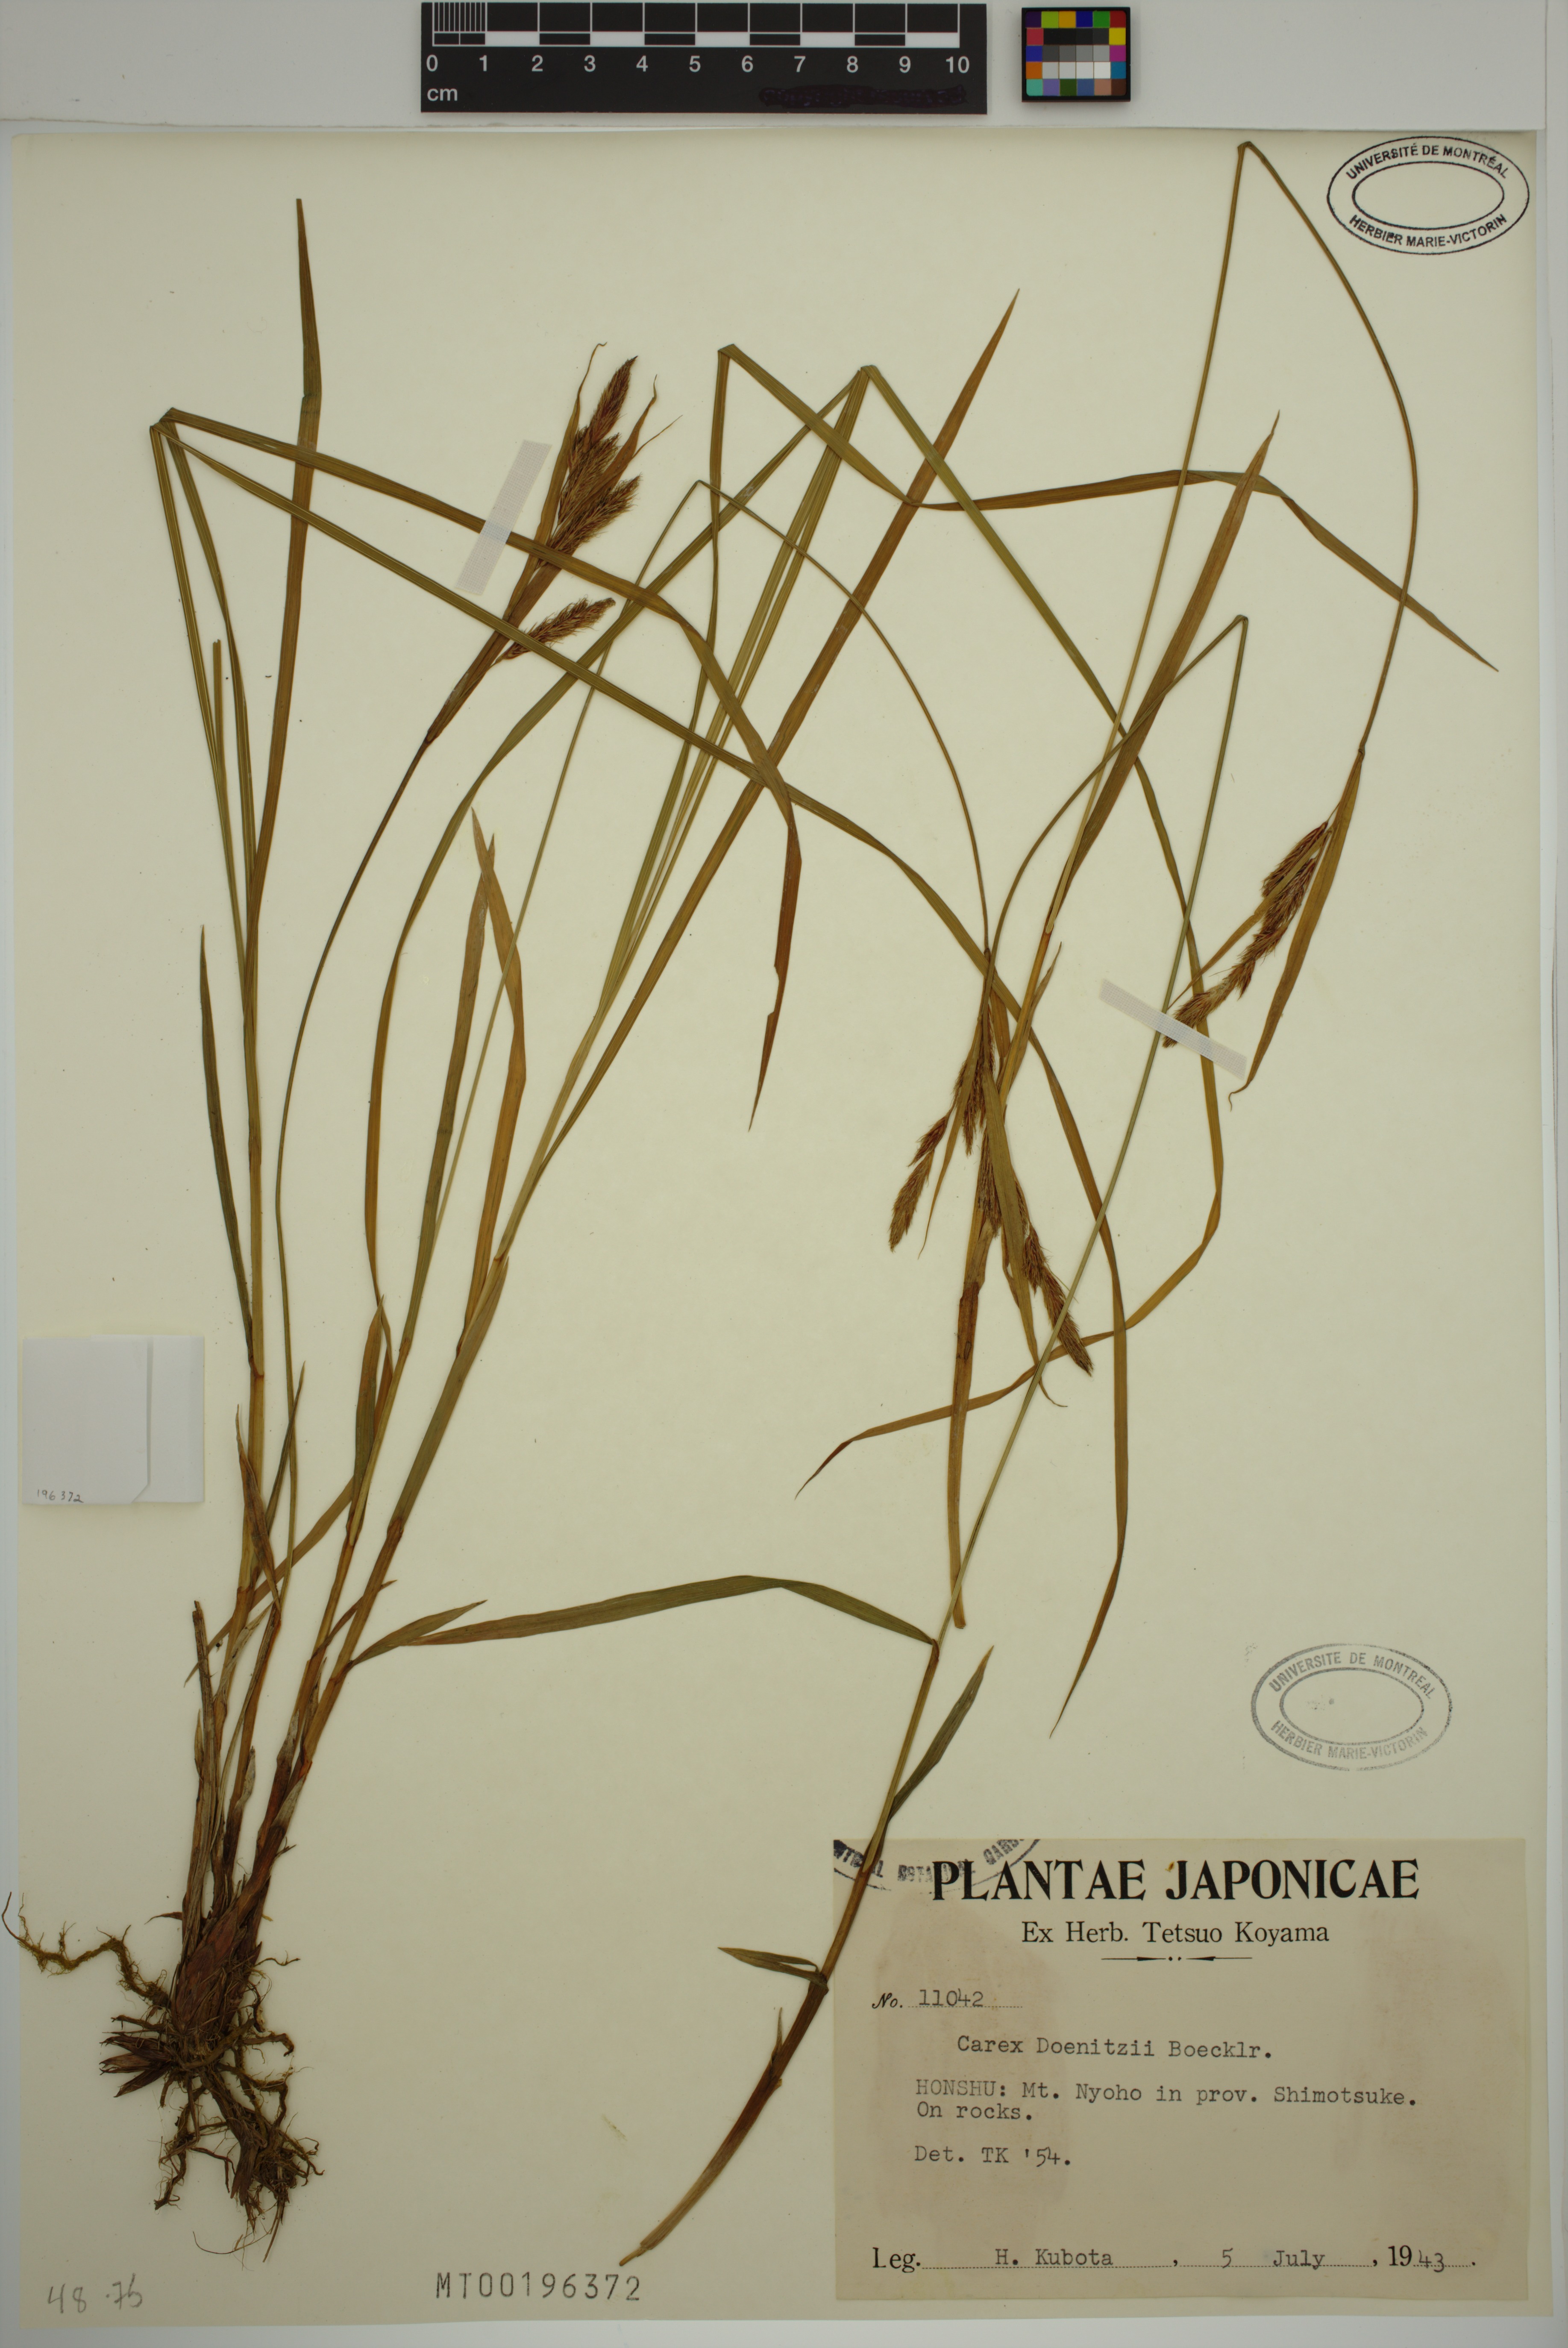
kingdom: Plantae
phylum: Tracheophyta
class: Liliopsida
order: Poales
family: Cyperaceae
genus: Carex
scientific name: Carex doenitzii
